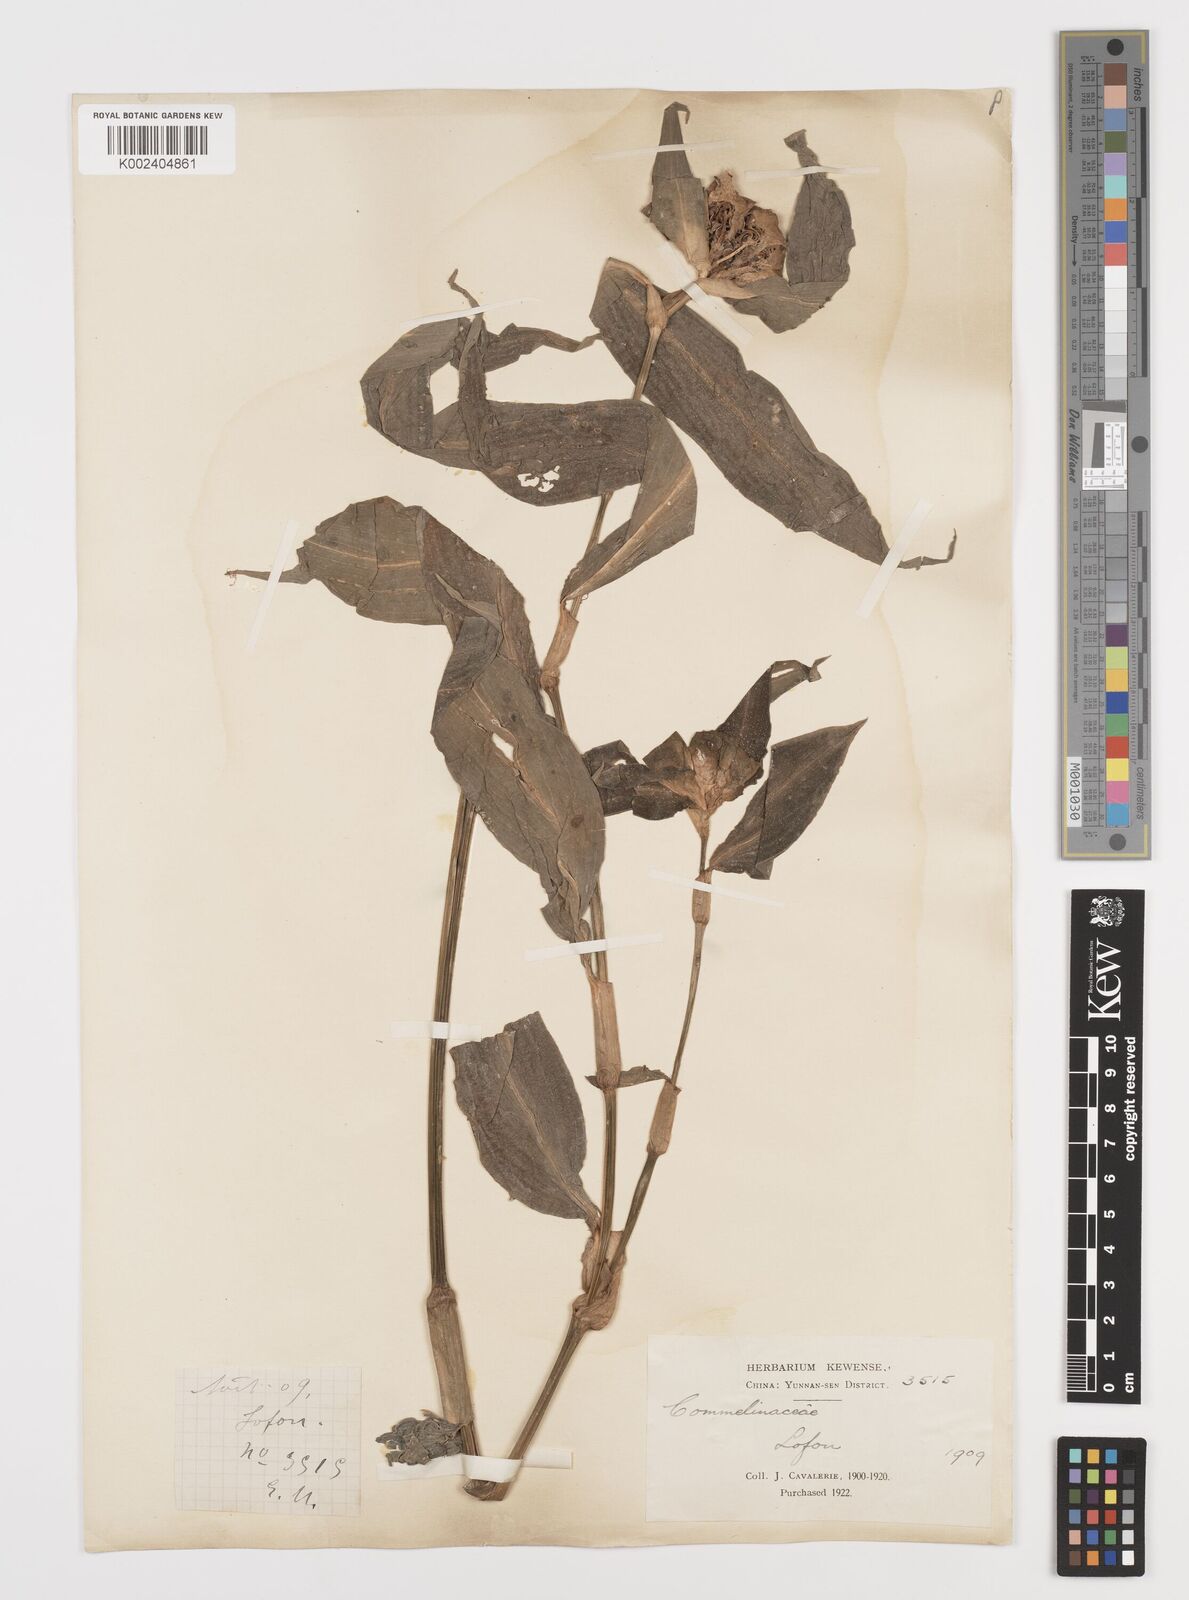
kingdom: Plantae
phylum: Tracheophyta
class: Liliopsida
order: Commelinales
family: Commelinaceae
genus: Commelina
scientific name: Commelina obliqua
